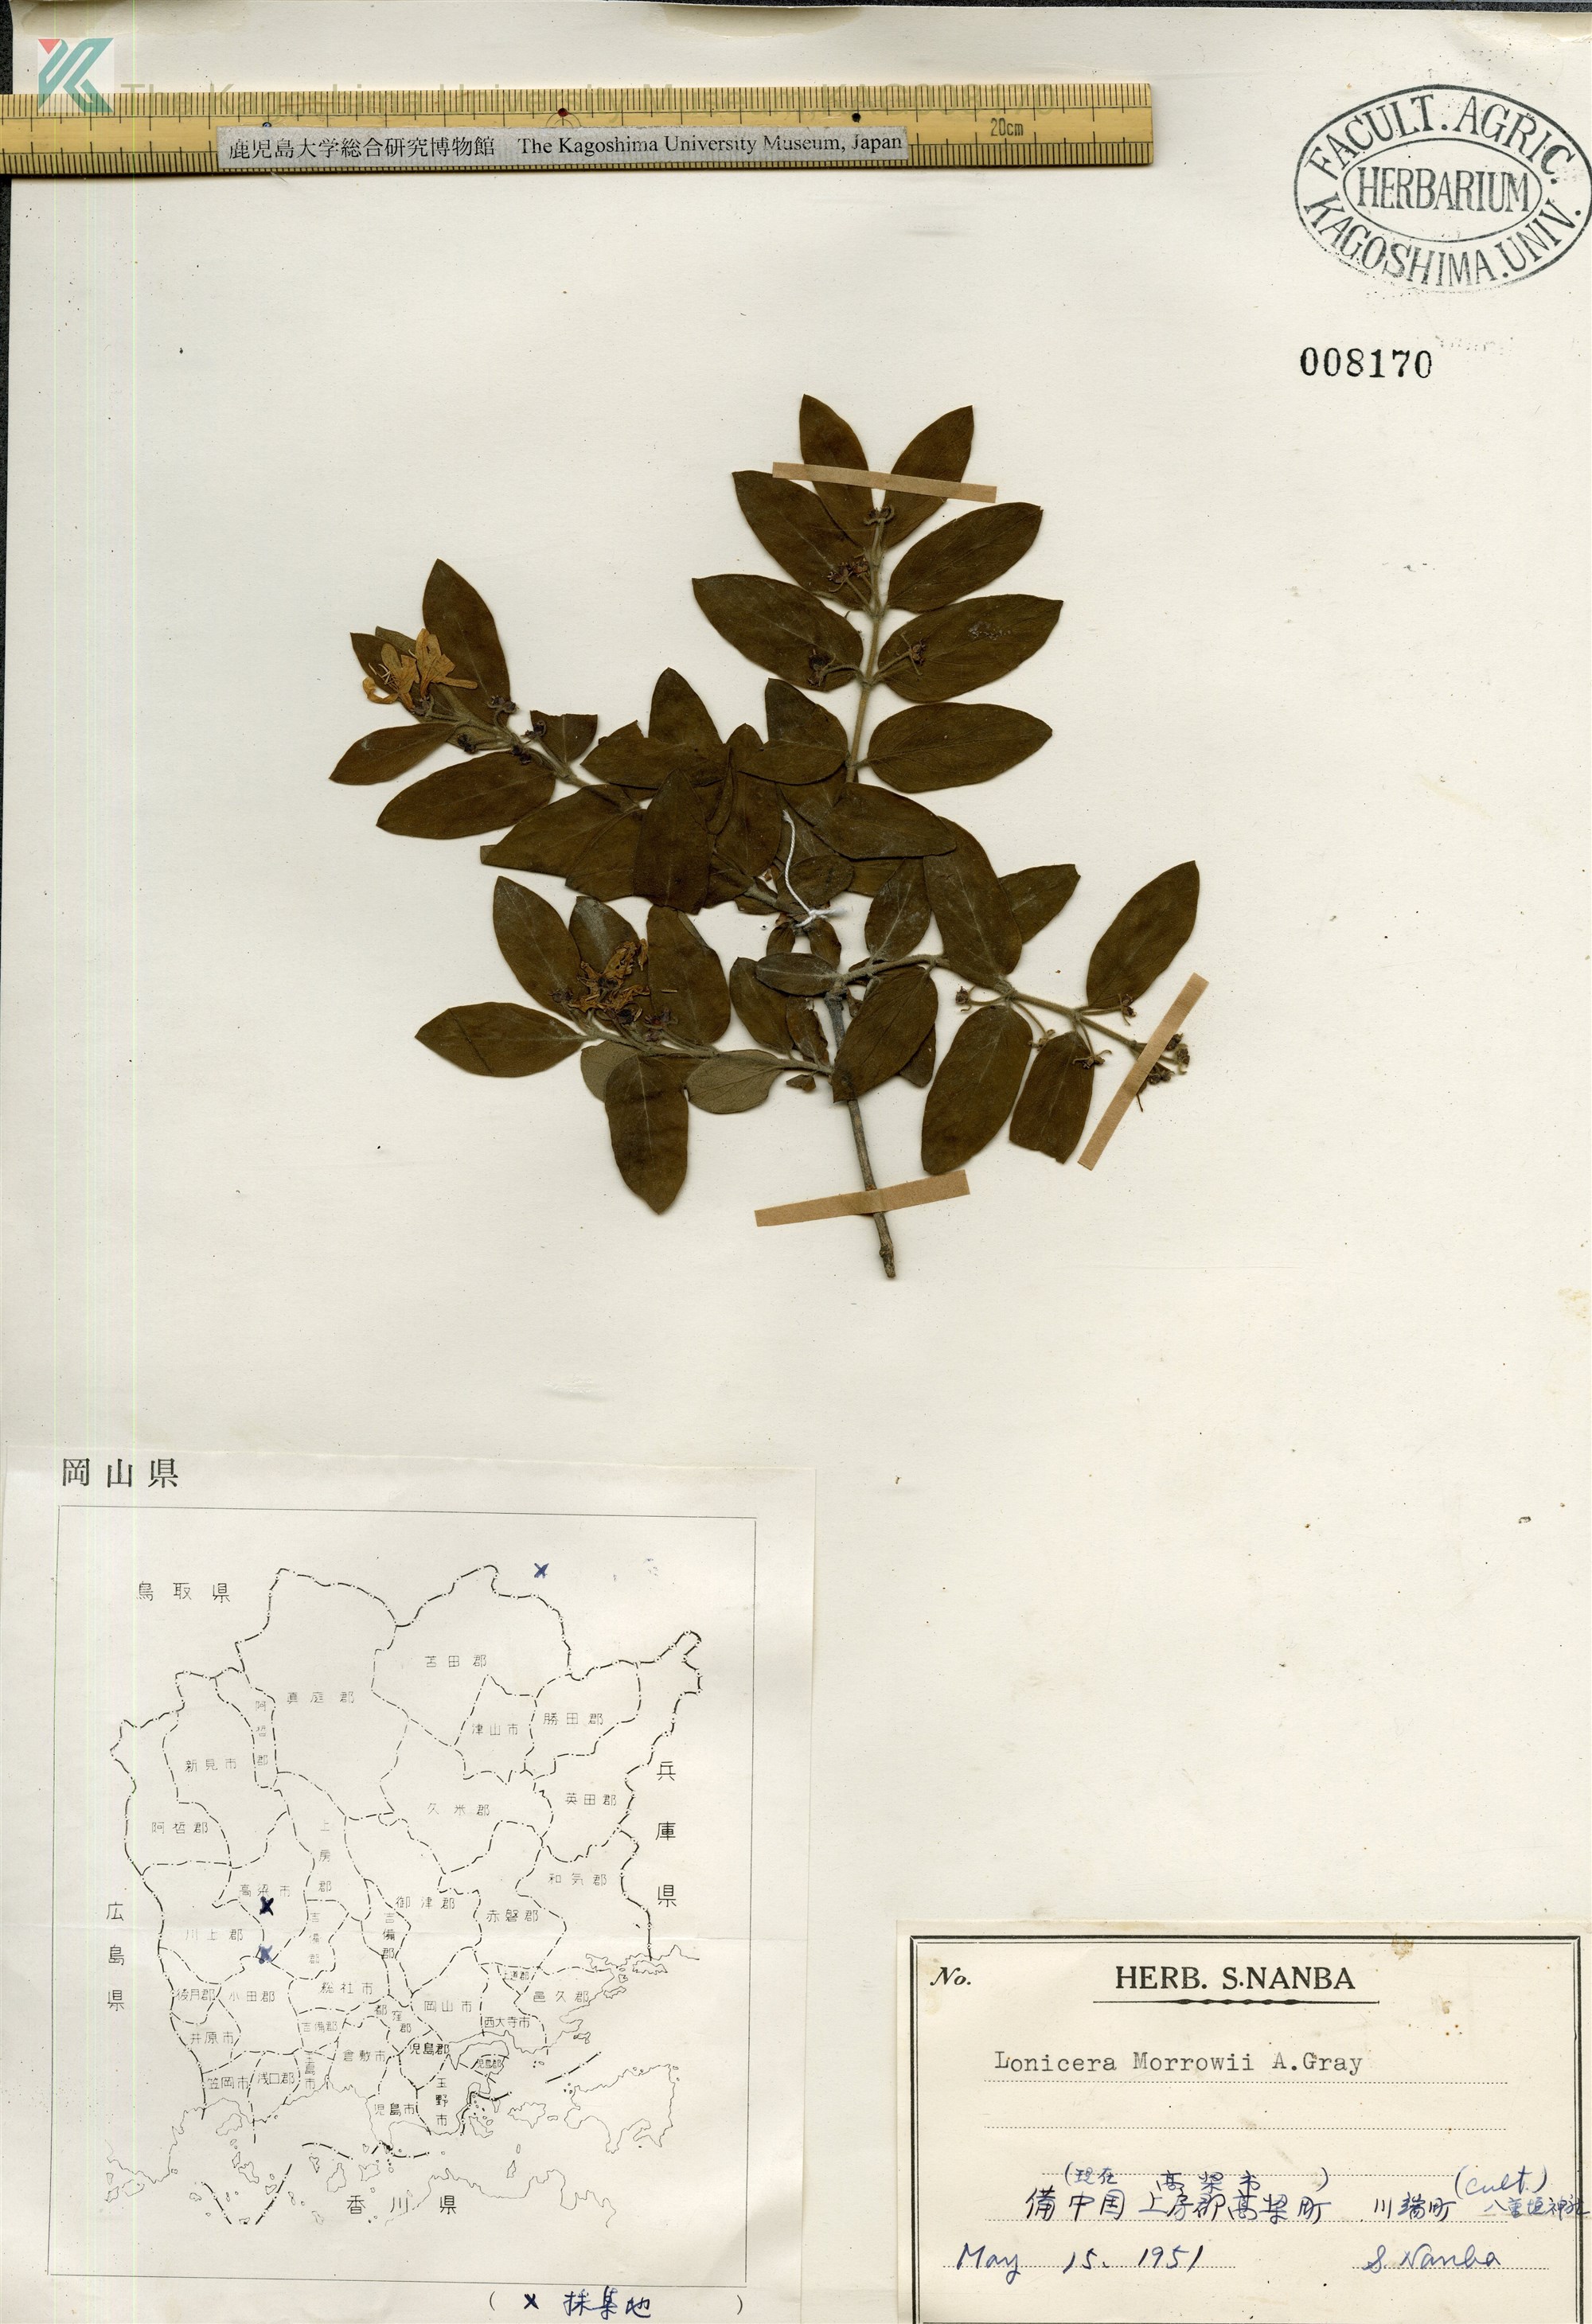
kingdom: Plantae
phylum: Tracheophyta
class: Magnoliopsida
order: Dipsacales
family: Caprifoliaceae
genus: Lonicera
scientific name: Lonicera morrowii
